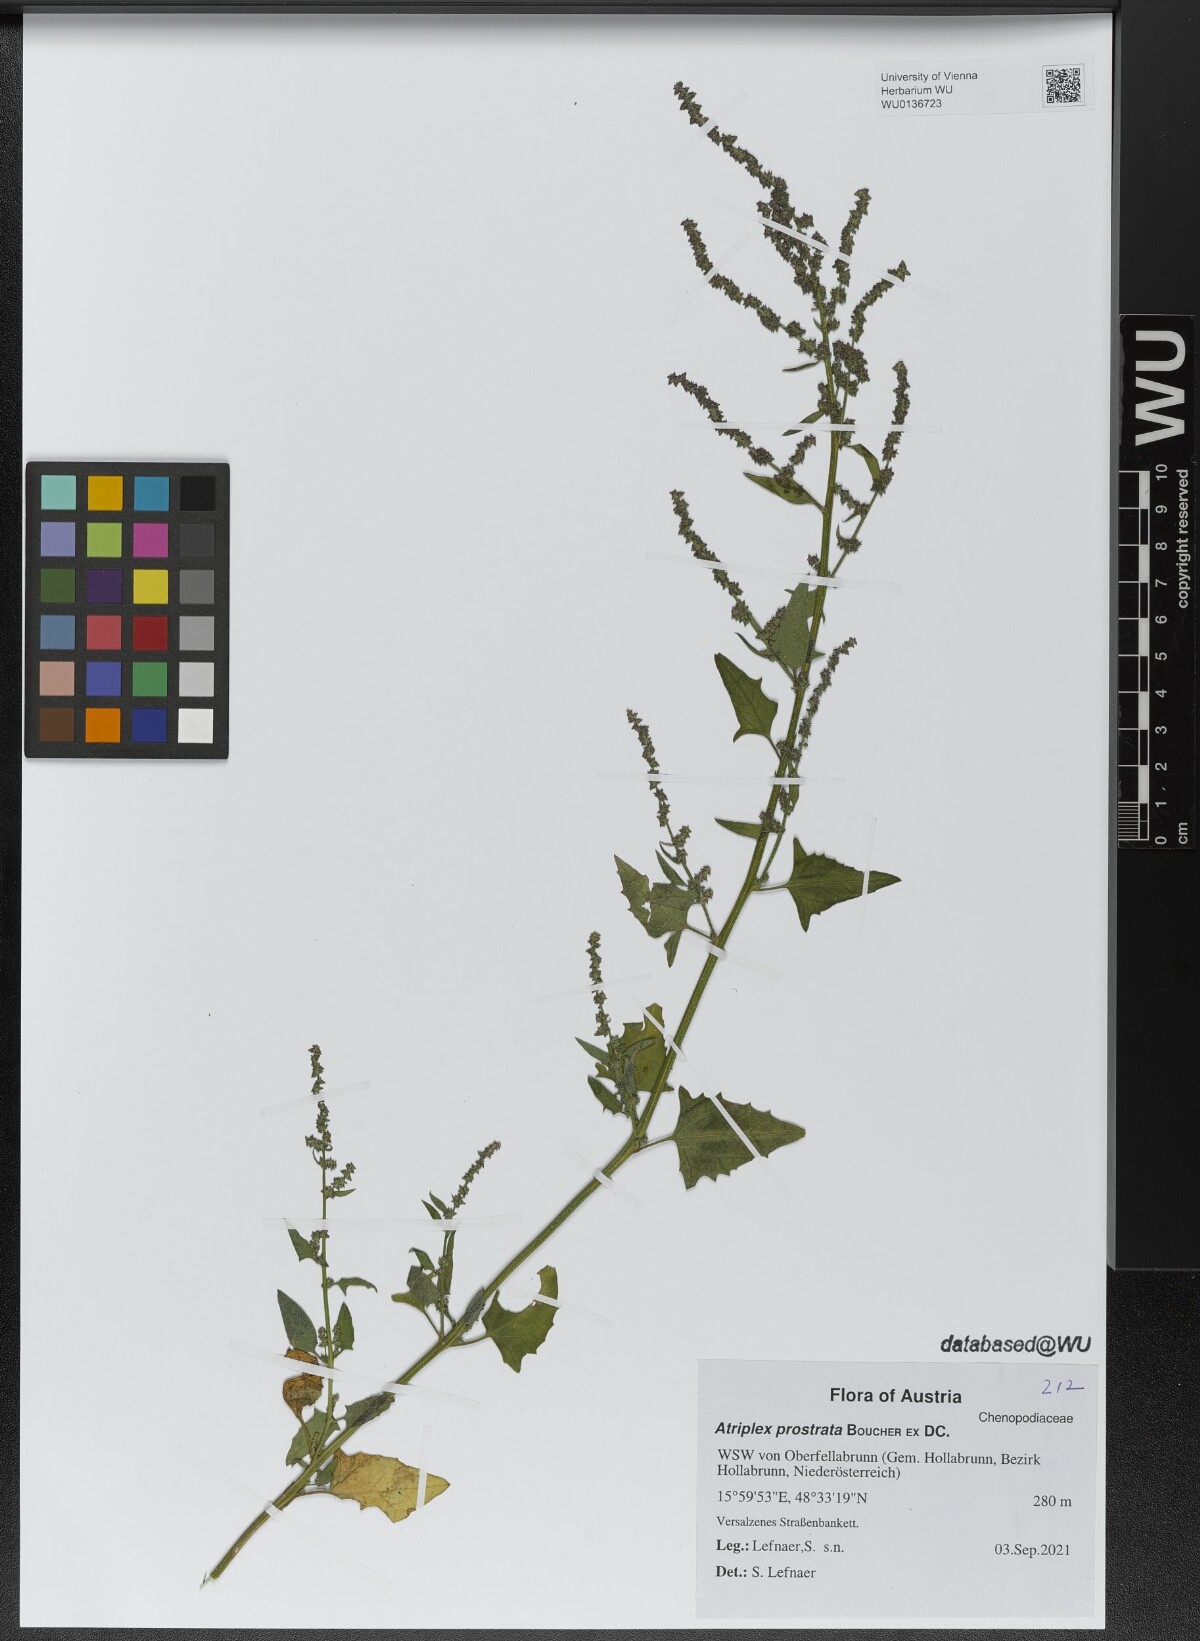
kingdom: Plantae
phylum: Tracheophyta
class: Magnoliopsida
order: Caryophyllales
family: Amaranthaceae
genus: Atriplex
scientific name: Atriplex prostrata
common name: Spear-leaved orache
